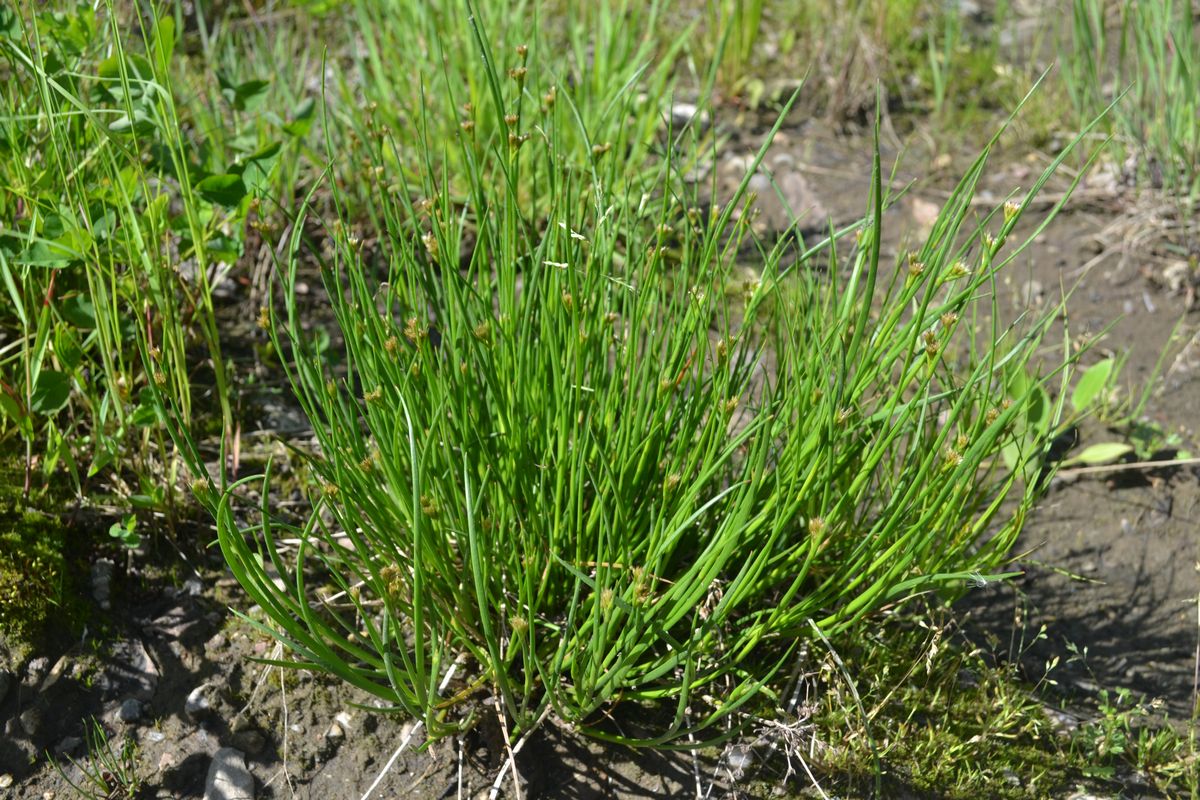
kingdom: Plantae
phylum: Tracheophyta
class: Liliopsida
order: Poales
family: Juncaceae
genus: Juncus
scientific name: Juncus articulatus
